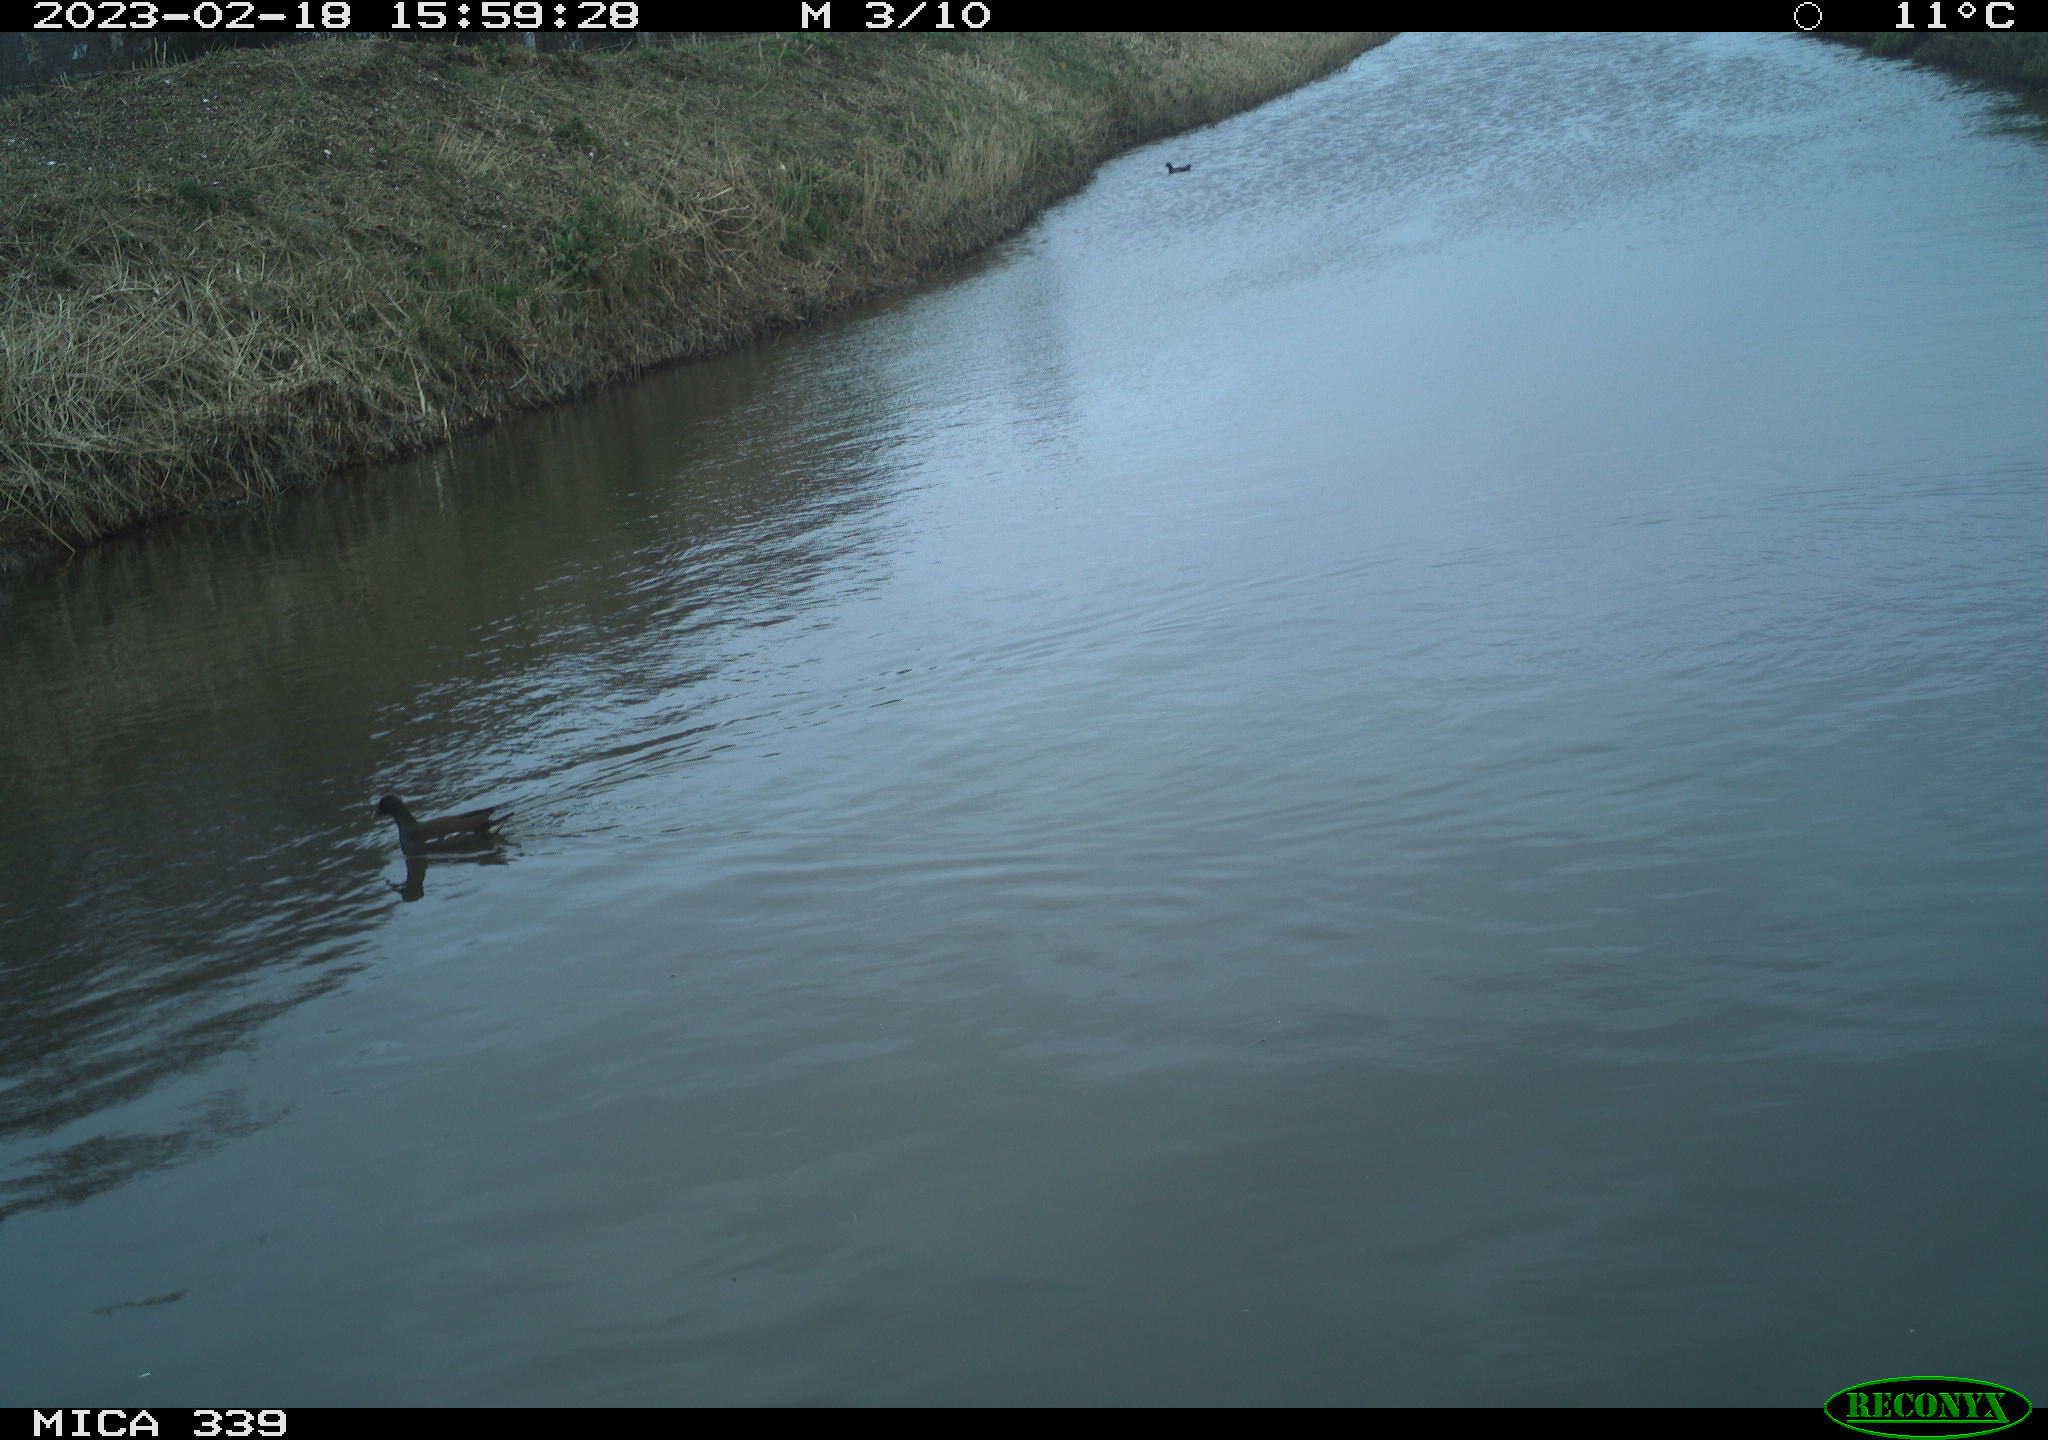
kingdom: Animalia
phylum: Chordata
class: Aves
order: Gruiformes
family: Rallidae
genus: Gallinula
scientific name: Gallinula chloropus
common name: Common moorhen
